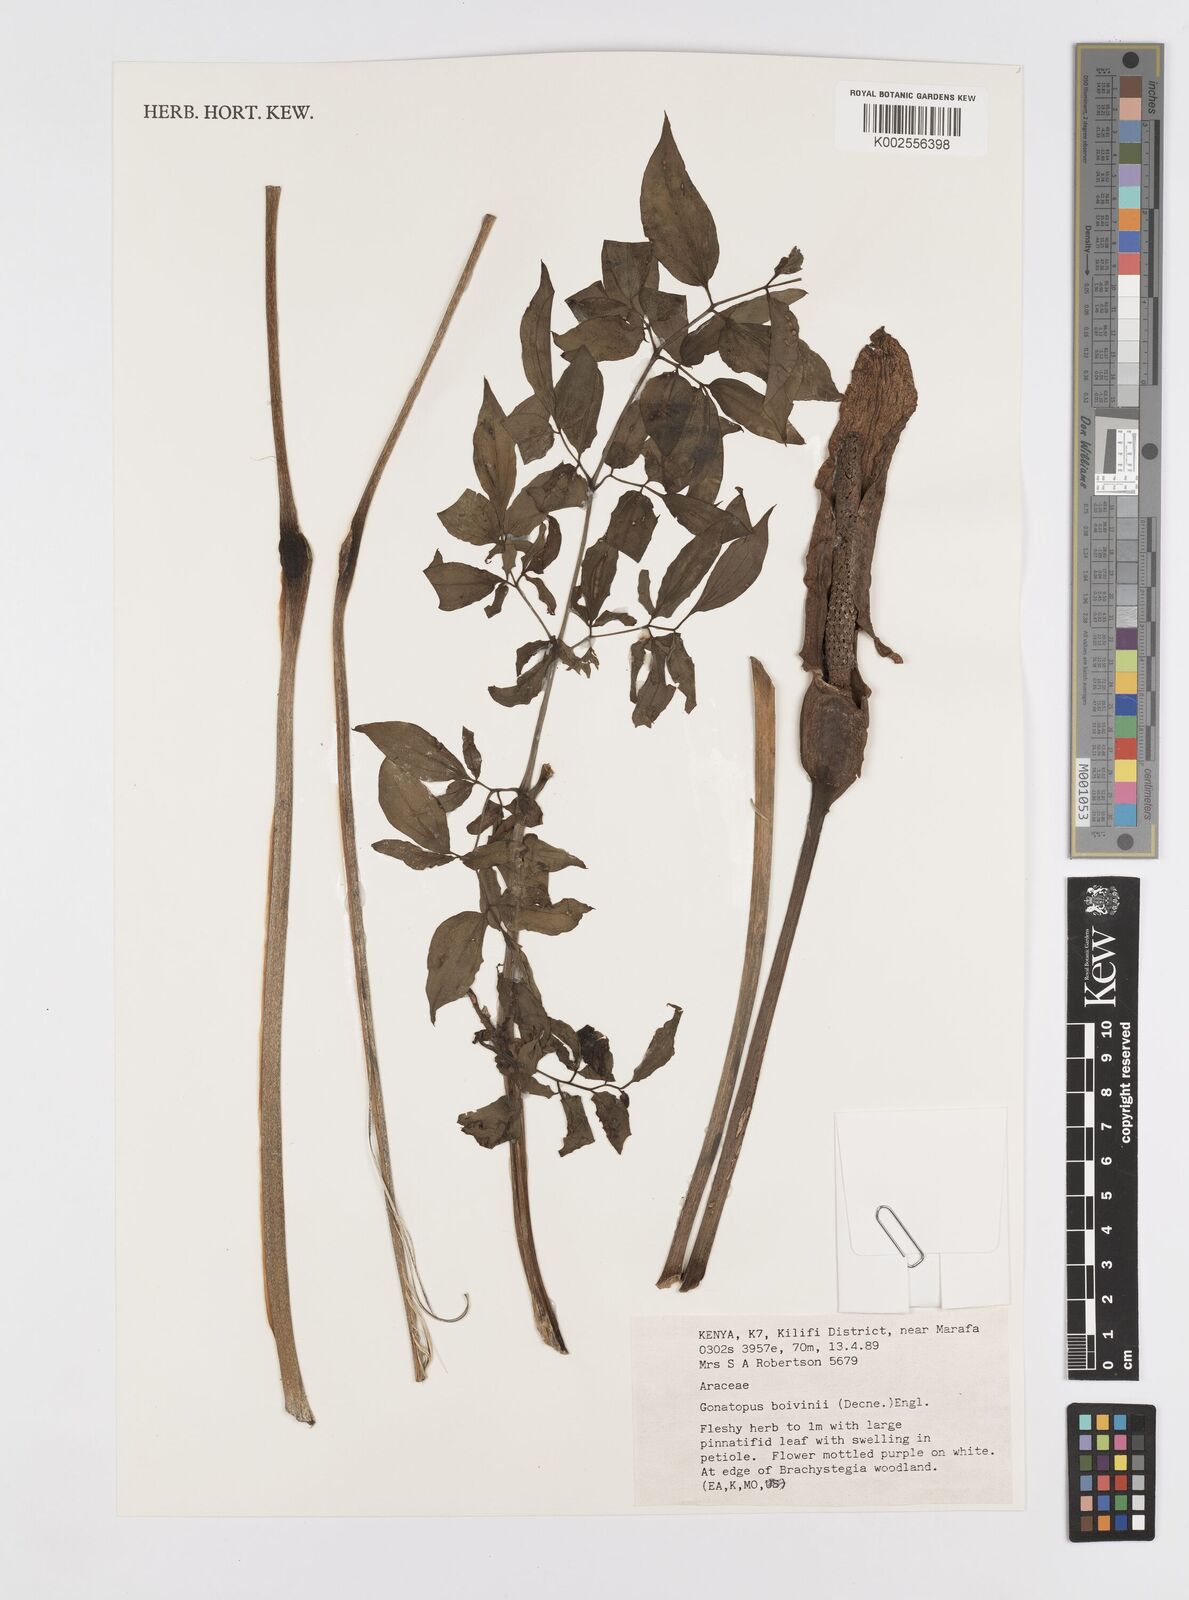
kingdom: Plantae
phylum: Tracheophyta
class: Liliopsida
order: Alismatales
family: Araceae
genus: Gonatopus
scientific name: Gonatopus boivinii
